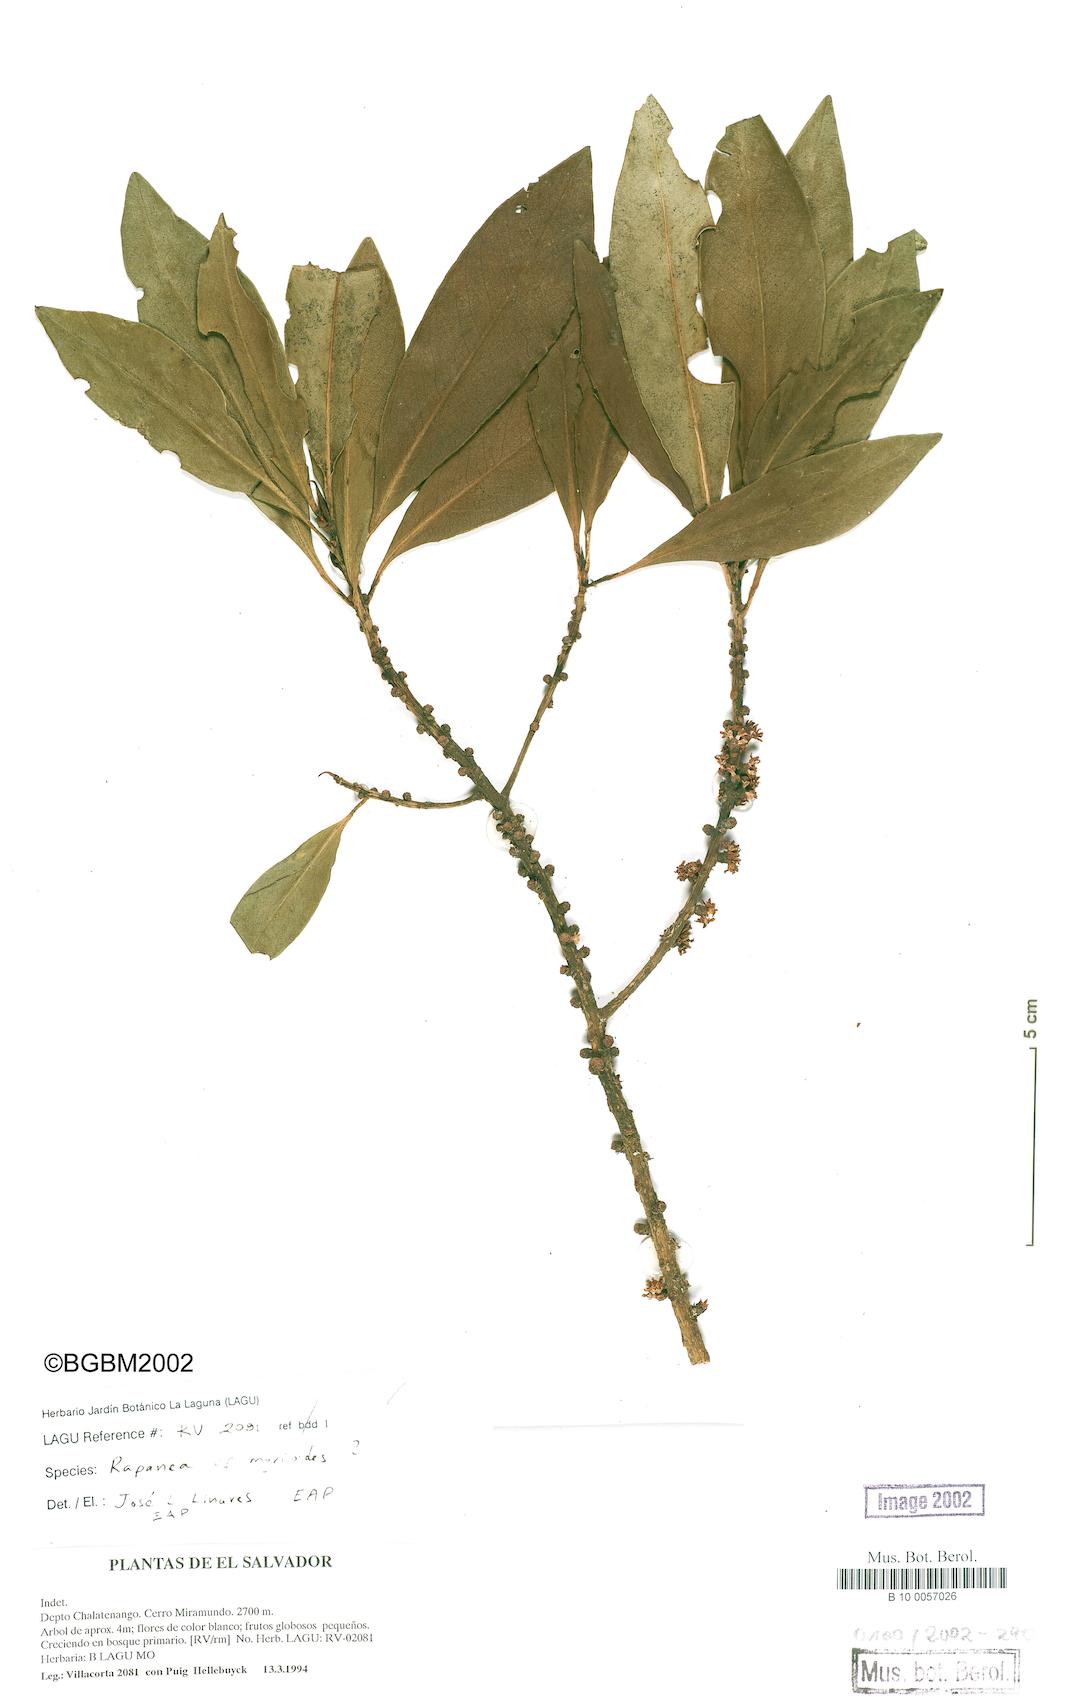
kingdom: Plantae
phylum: Tracheophyta
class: Magnoliopsida
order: Ericales
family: Primulaceae
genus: Myrsine
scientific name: Myrsine coriacea
